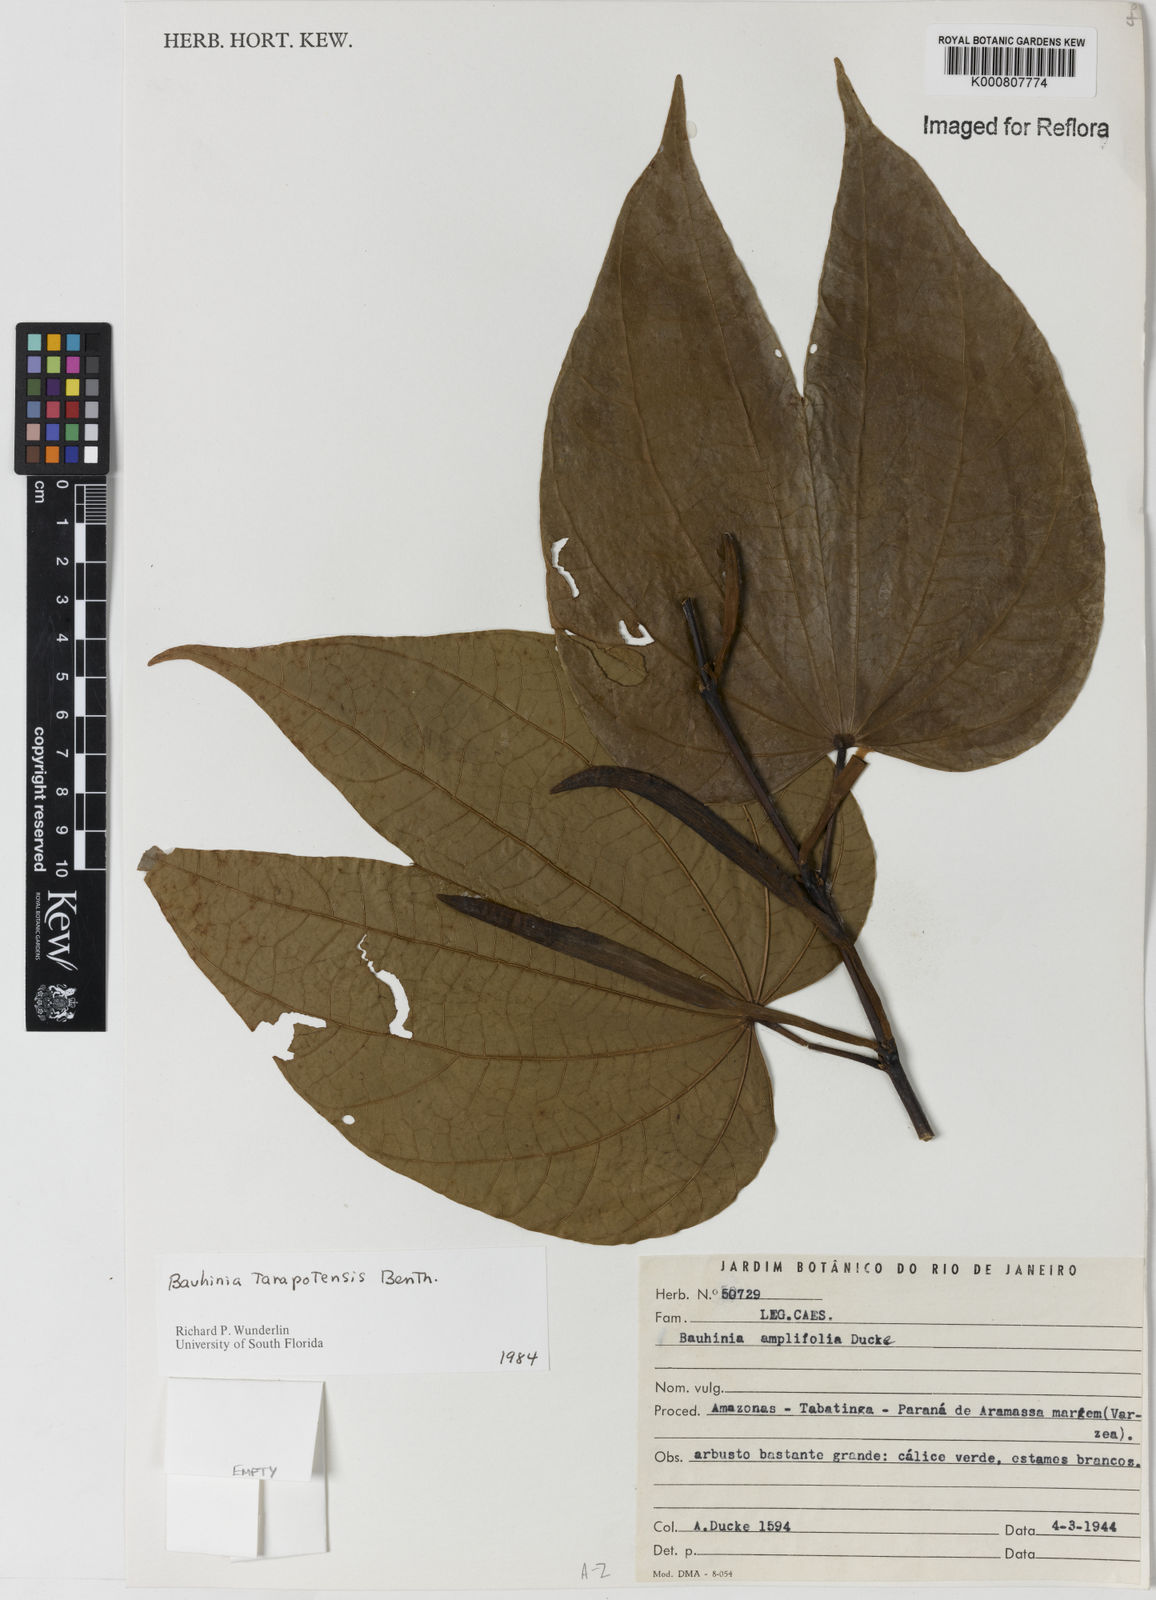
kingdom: Plantae
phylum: Tracheophyta
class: Magnoliopsida
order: Fabales
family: Fabaceae
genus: Bauhinia
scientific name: Bauhinia tarapotensis
